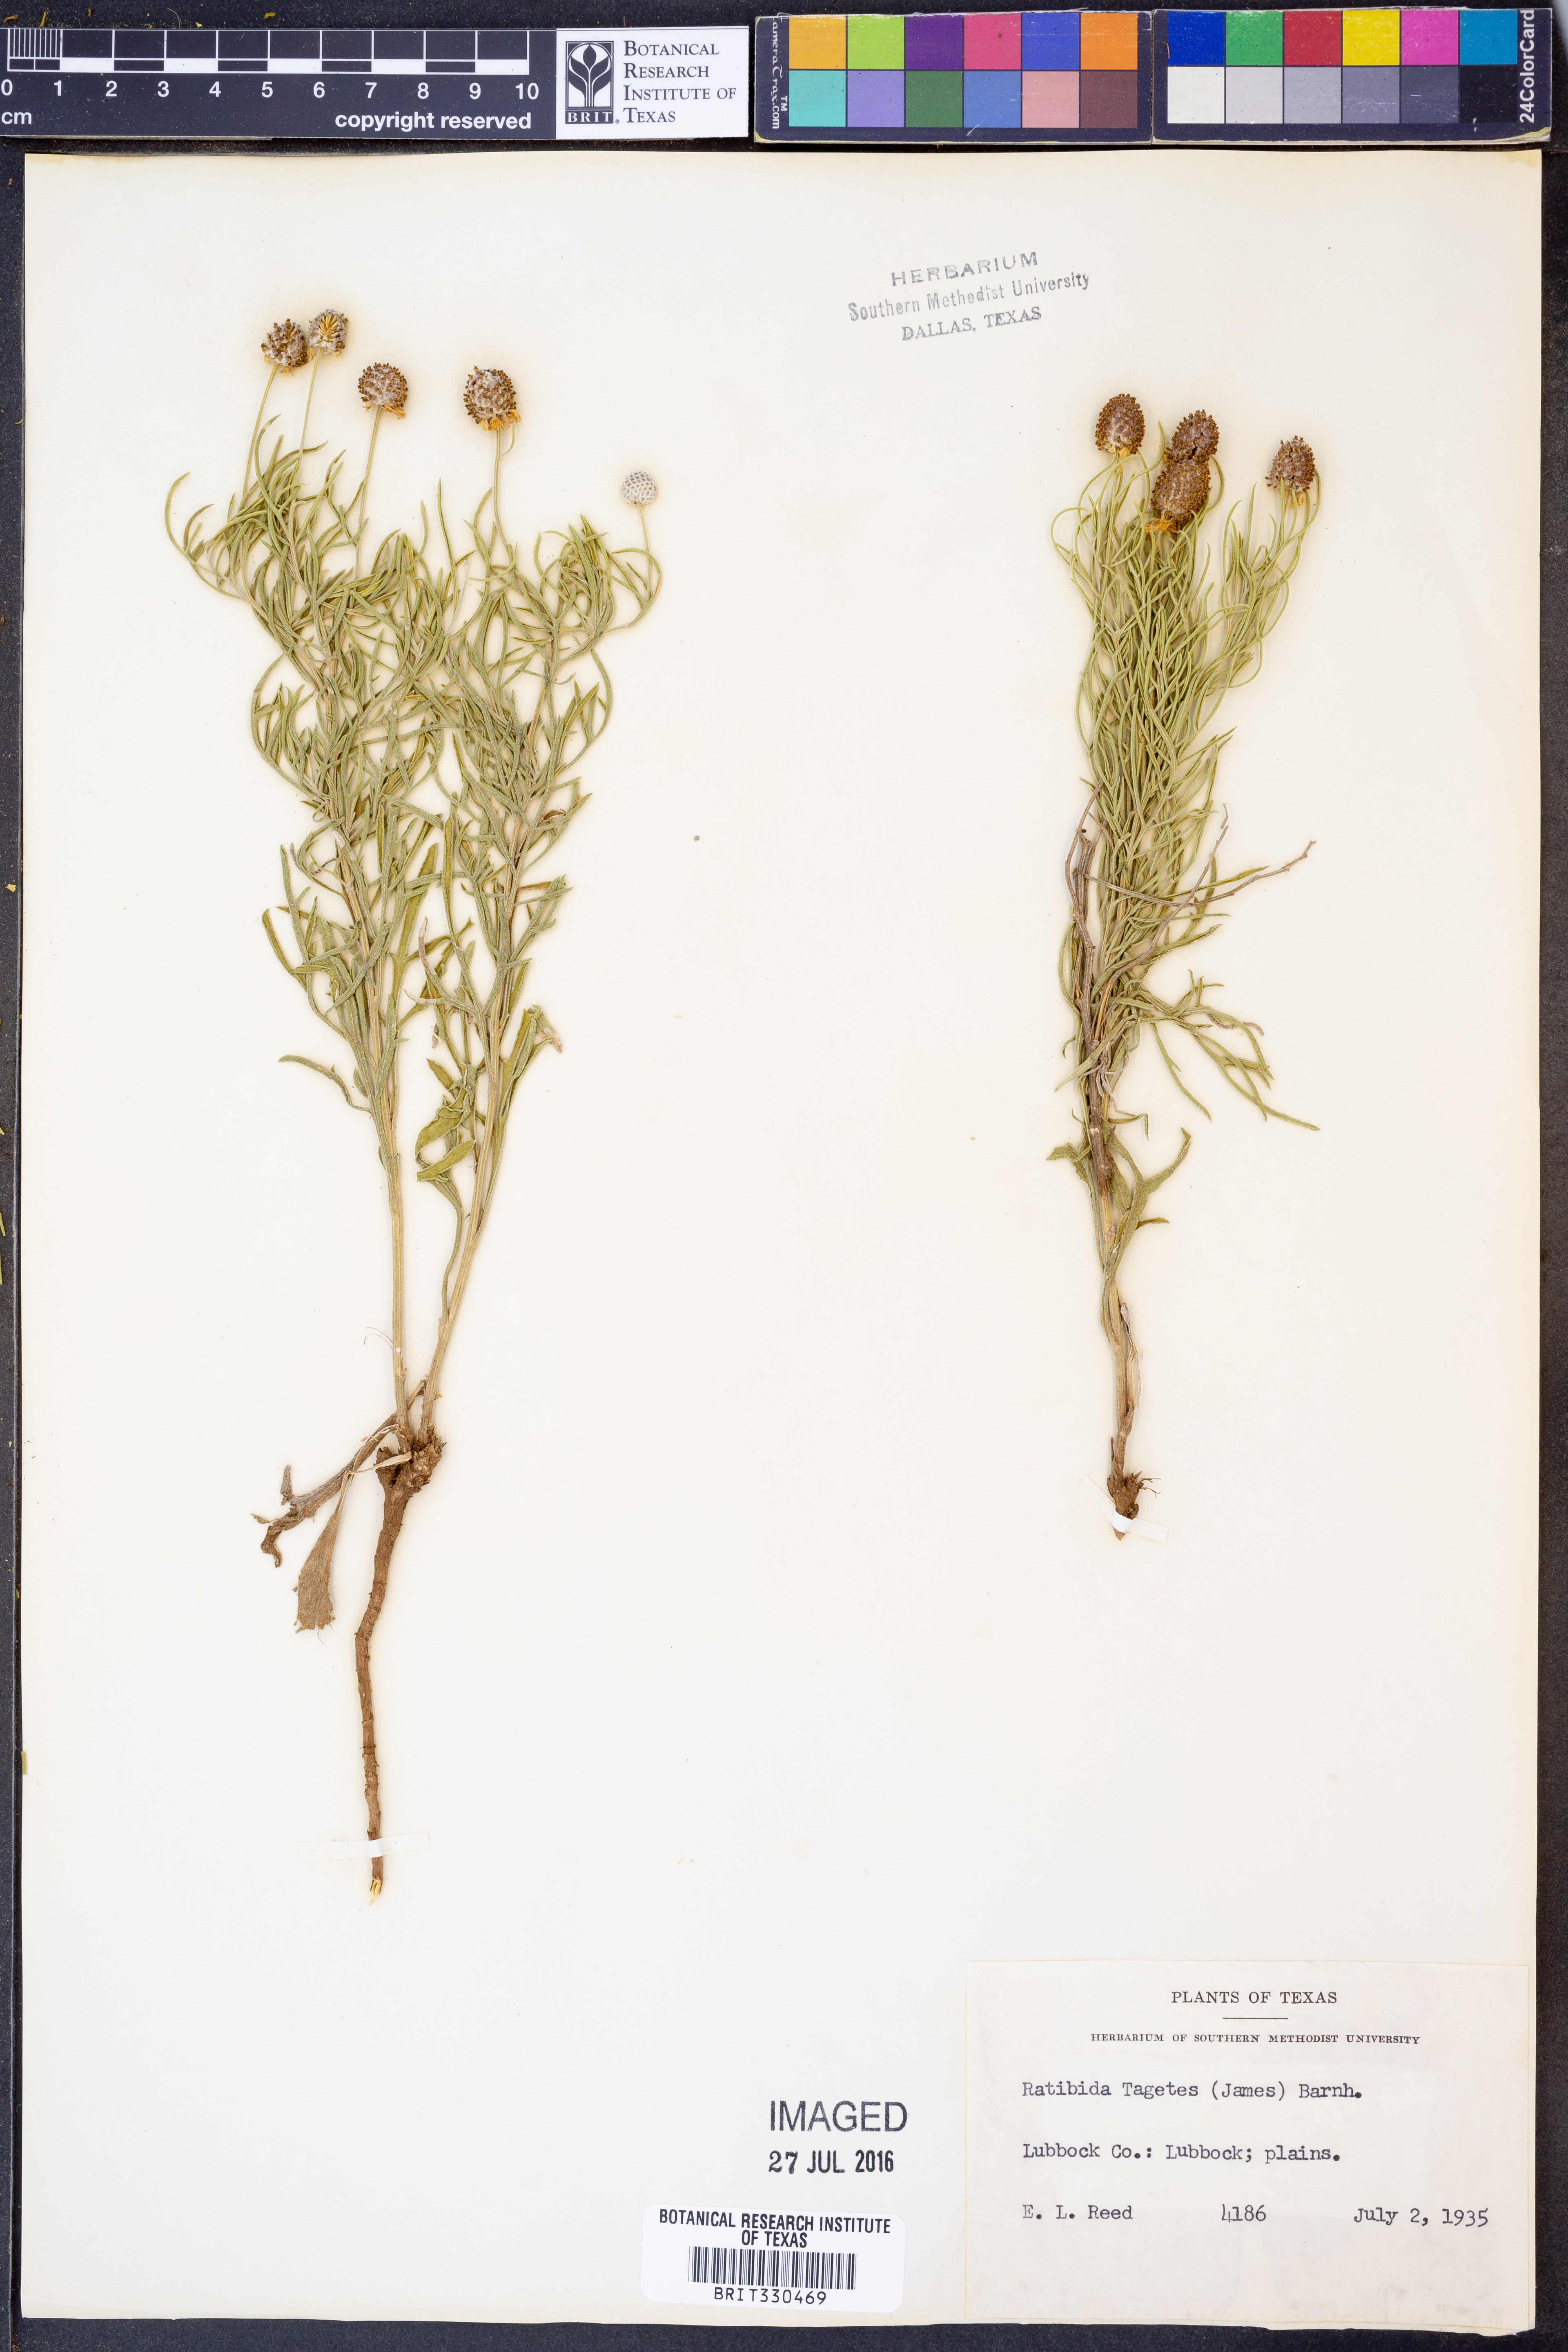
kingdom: Plantae
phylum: Tracheophyta
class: Magnoliopsida
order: Asterales
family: Asteraceae
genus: Ratibida
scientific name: Ratibida tagetes
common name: Green mexican-hat
